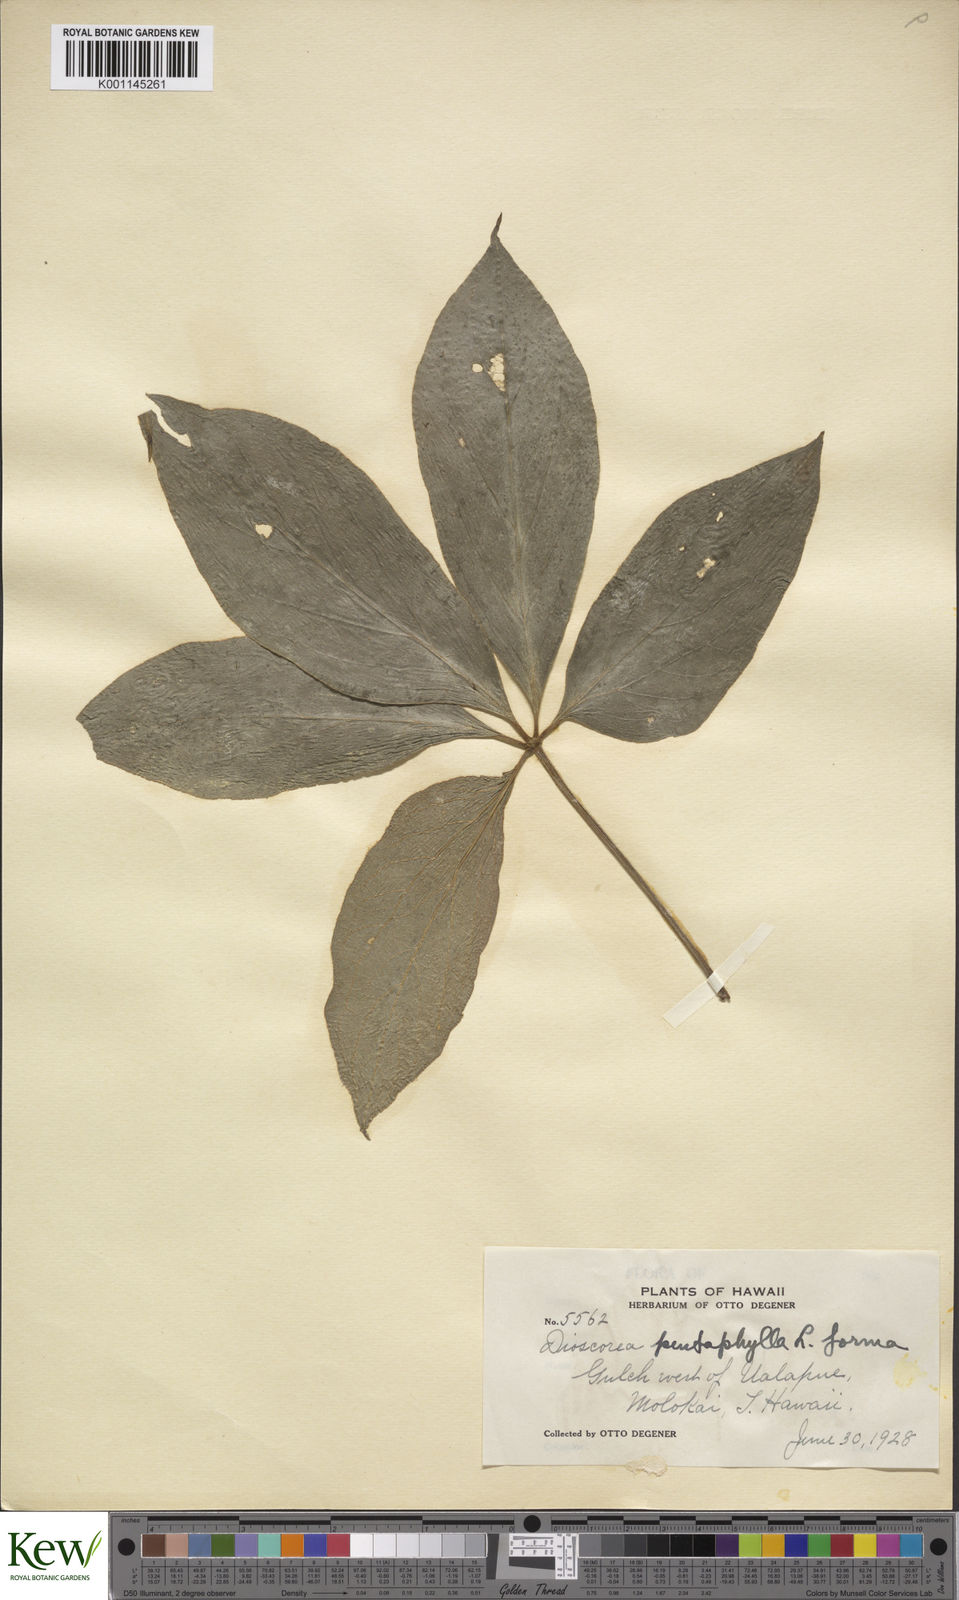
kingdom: Plantae
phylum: Tracheophyta
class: Liliopsida
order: Dioscoreales
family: Dioscoreaceae
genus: Dioscorea
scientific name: Dioscorea pentaphylla
